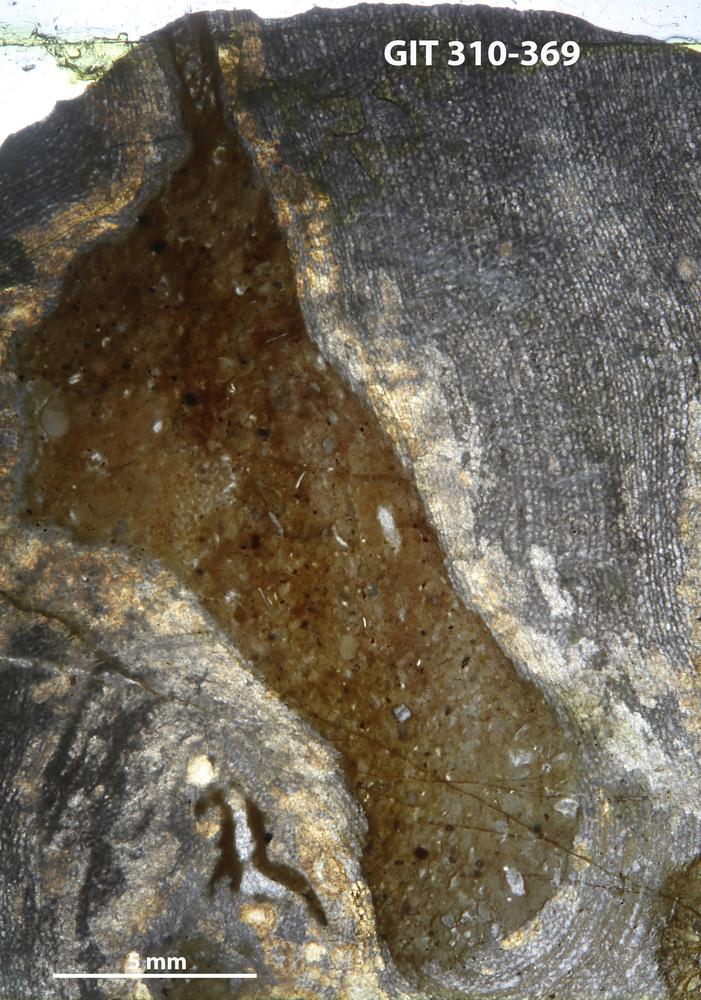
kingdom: Animalia
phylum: Porifera
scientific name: Porifera
